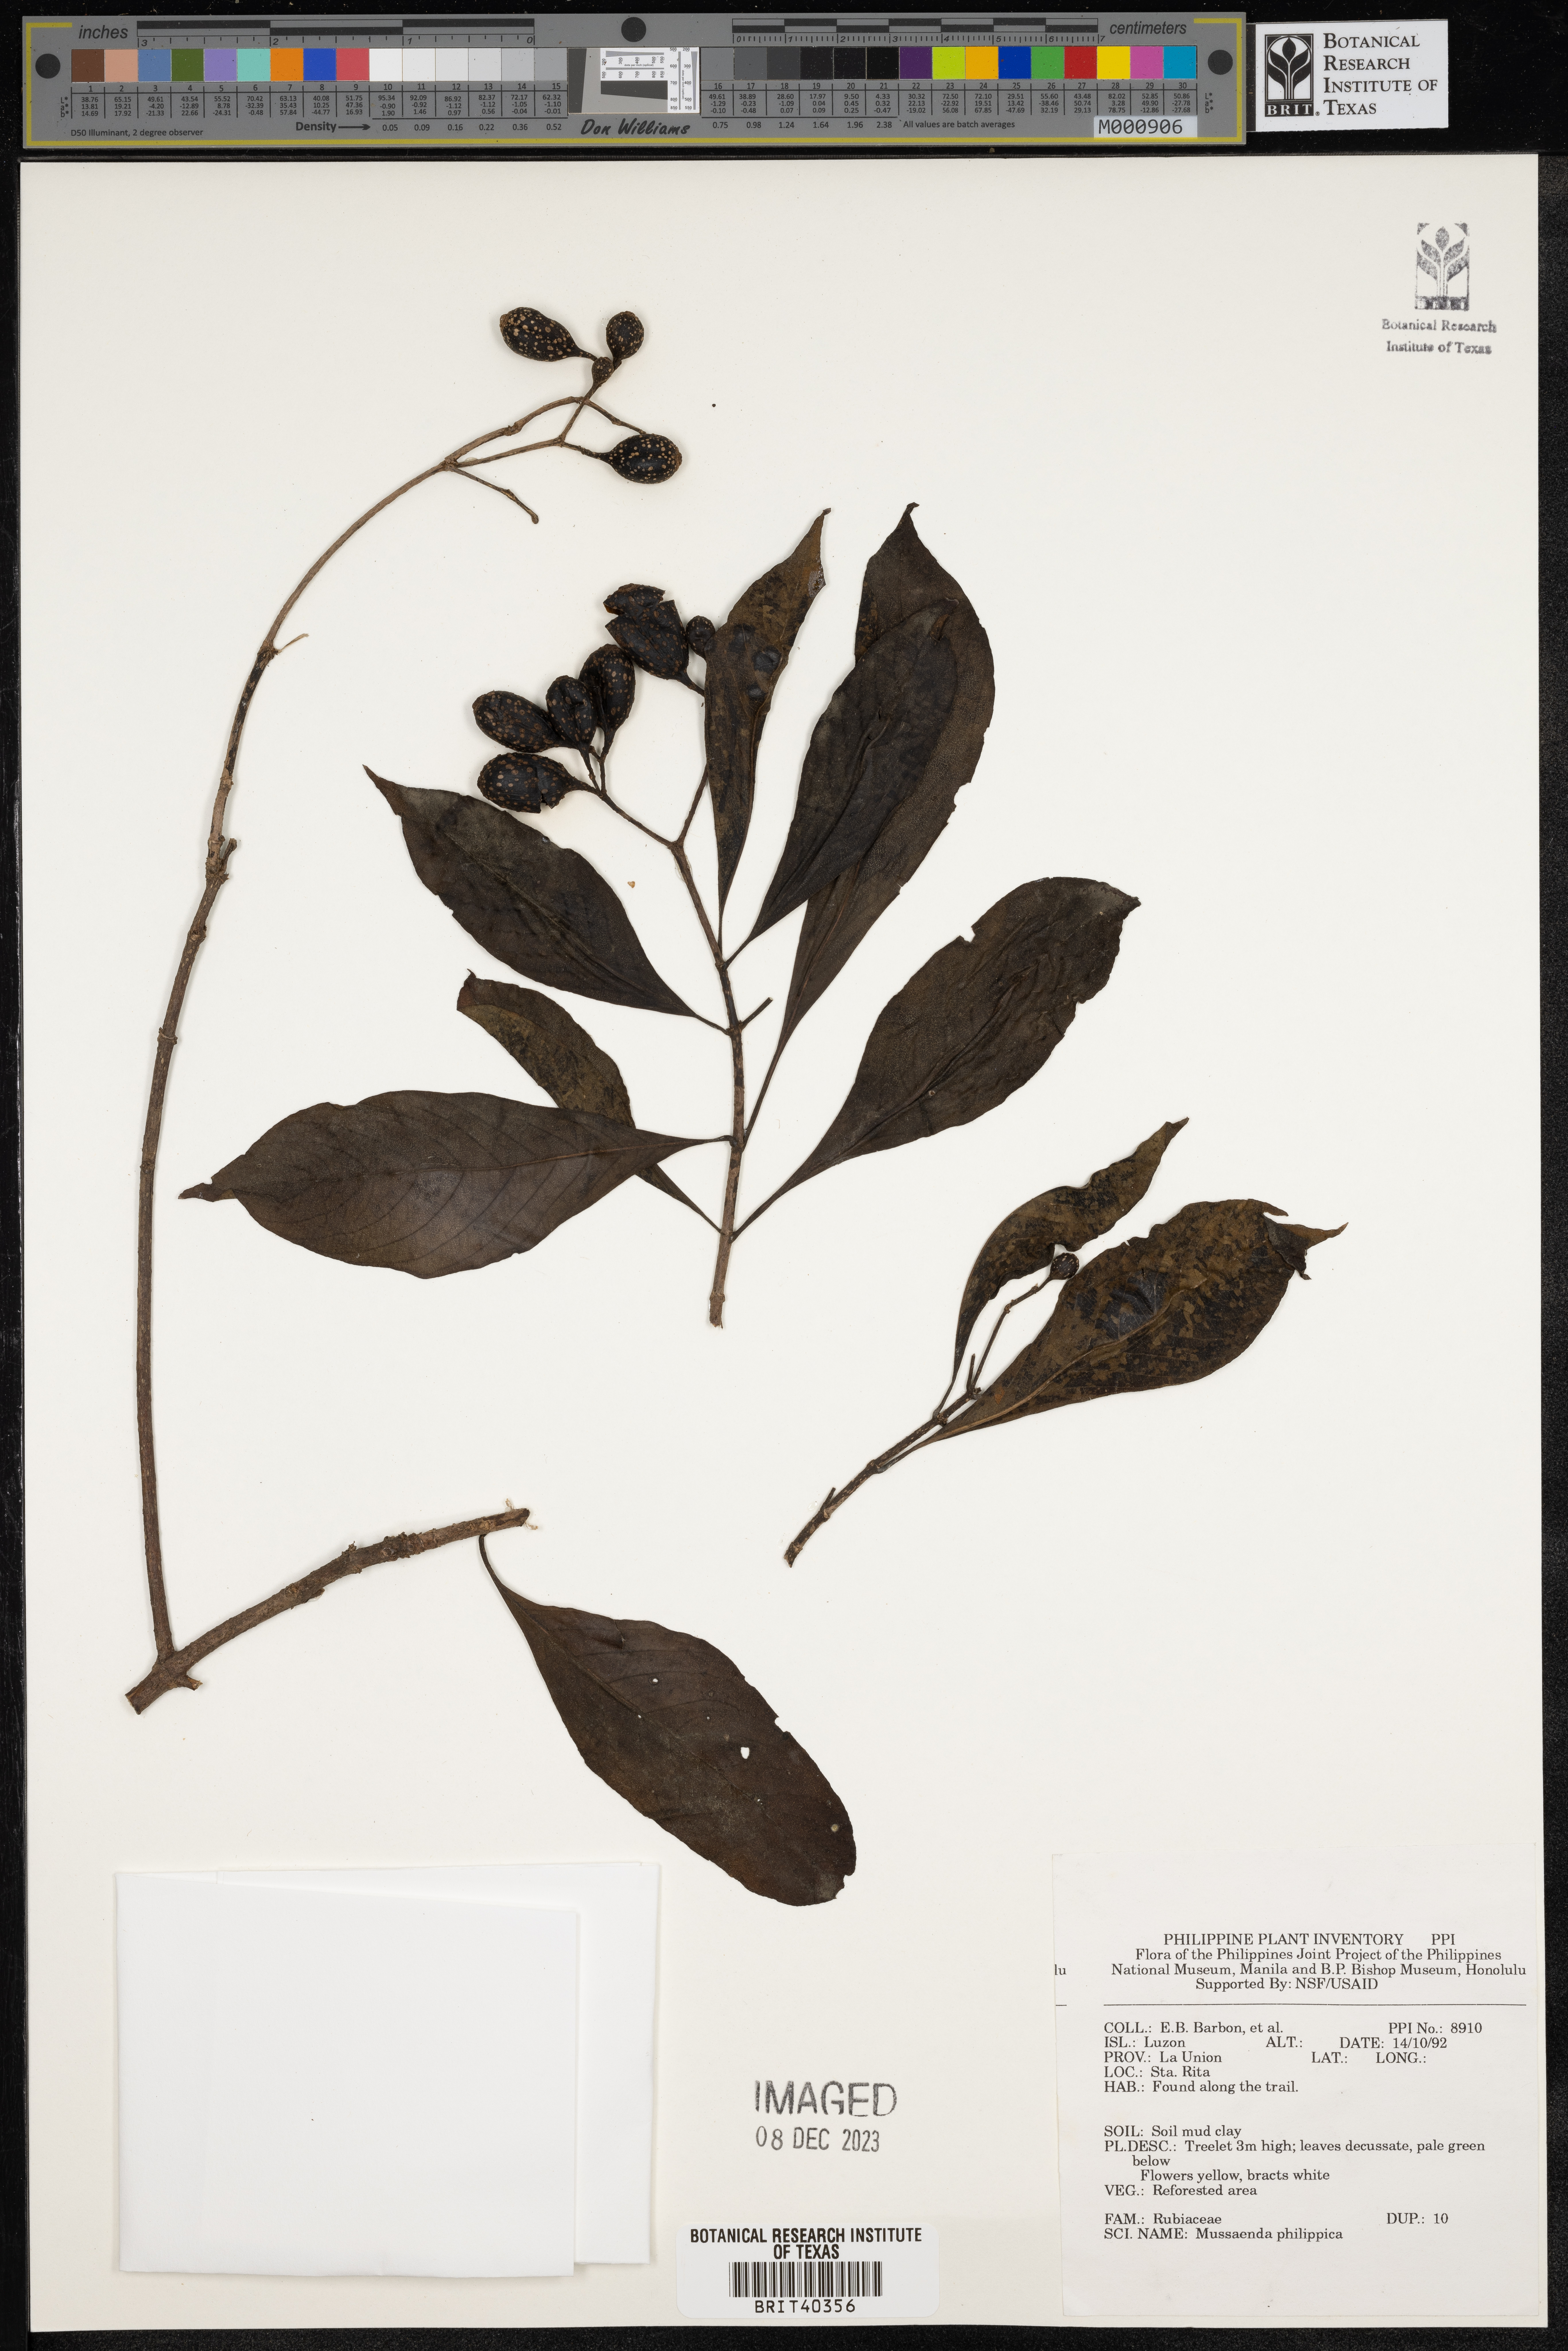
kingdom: Plantae
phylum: Tracheophyta
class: Magnoliopsida
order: Gentianales
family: Rubiaceae
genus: Mussaenda
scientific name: Mussaenda philippica
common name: Philippine mussaenda
